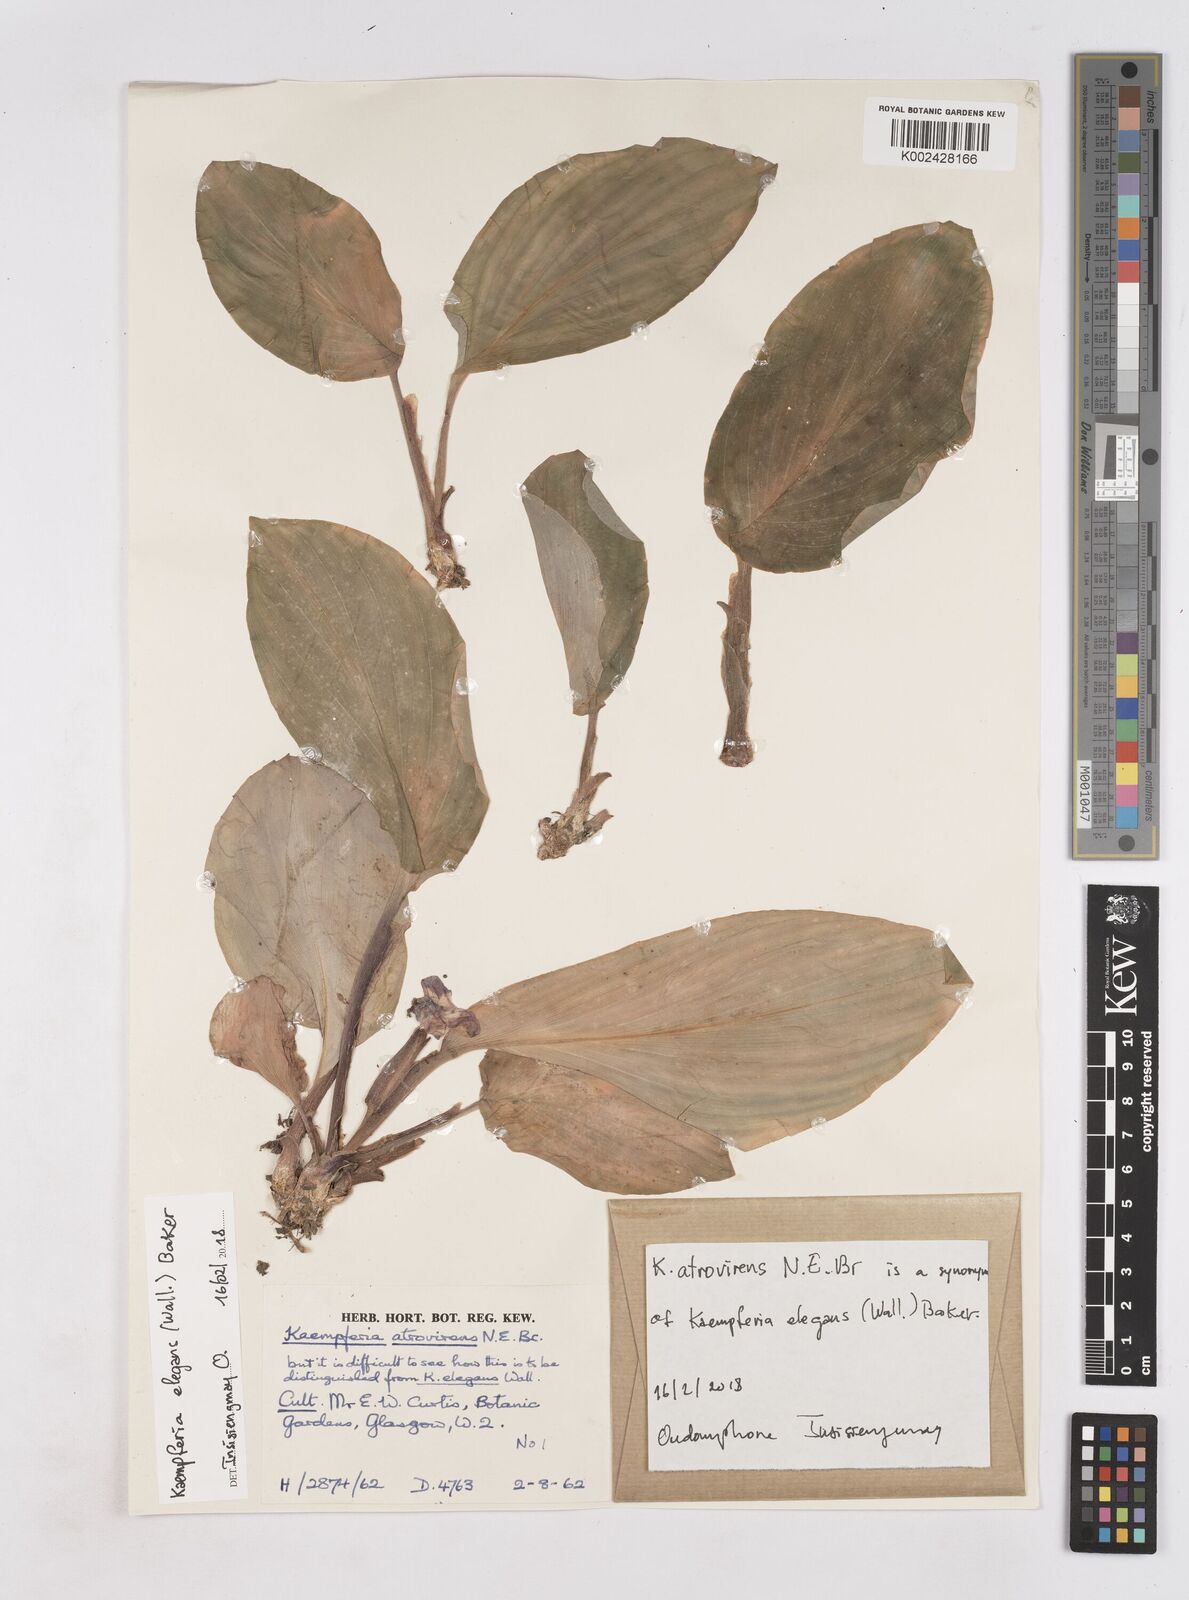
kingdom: Plantae
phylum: Tracheophyta
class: Liliopsida
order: Zingiberales
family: Zingiberaceae
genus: Kaempferia
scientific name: Kaempferia elegans
